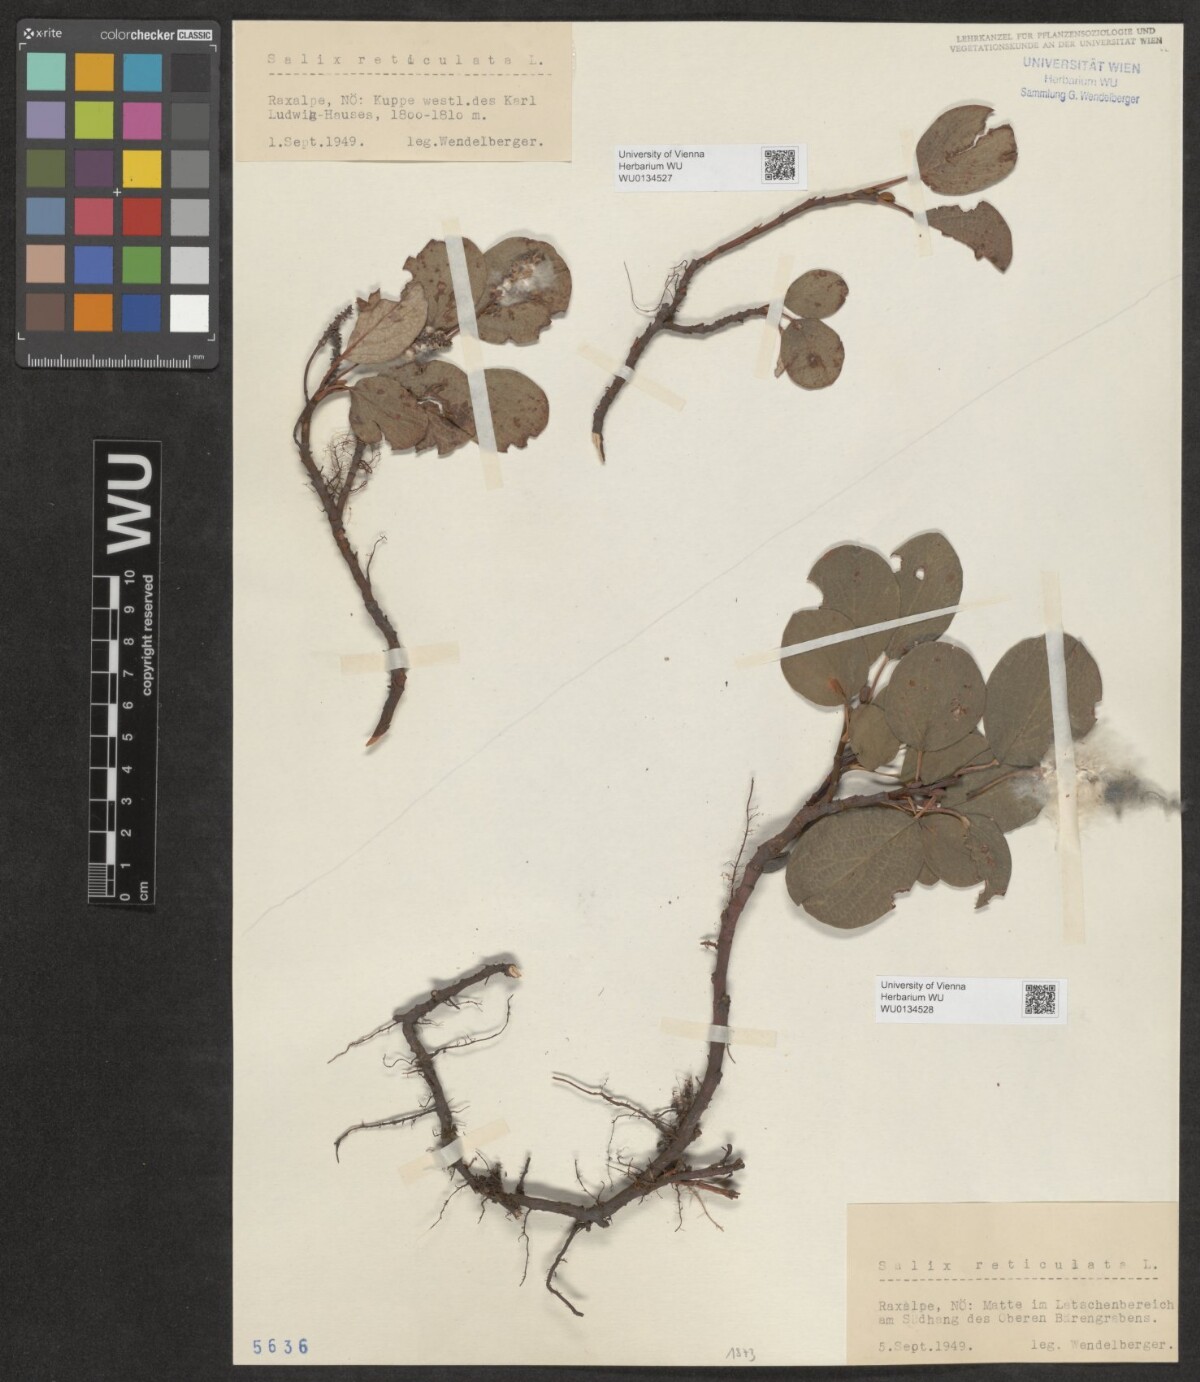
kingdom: Plantae
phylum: Tracheophyta
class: Magnoliopsida
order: Malpighiales
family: Salicaceae
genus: Salix
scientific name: Salix reticulata
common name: Net-leaved willow
